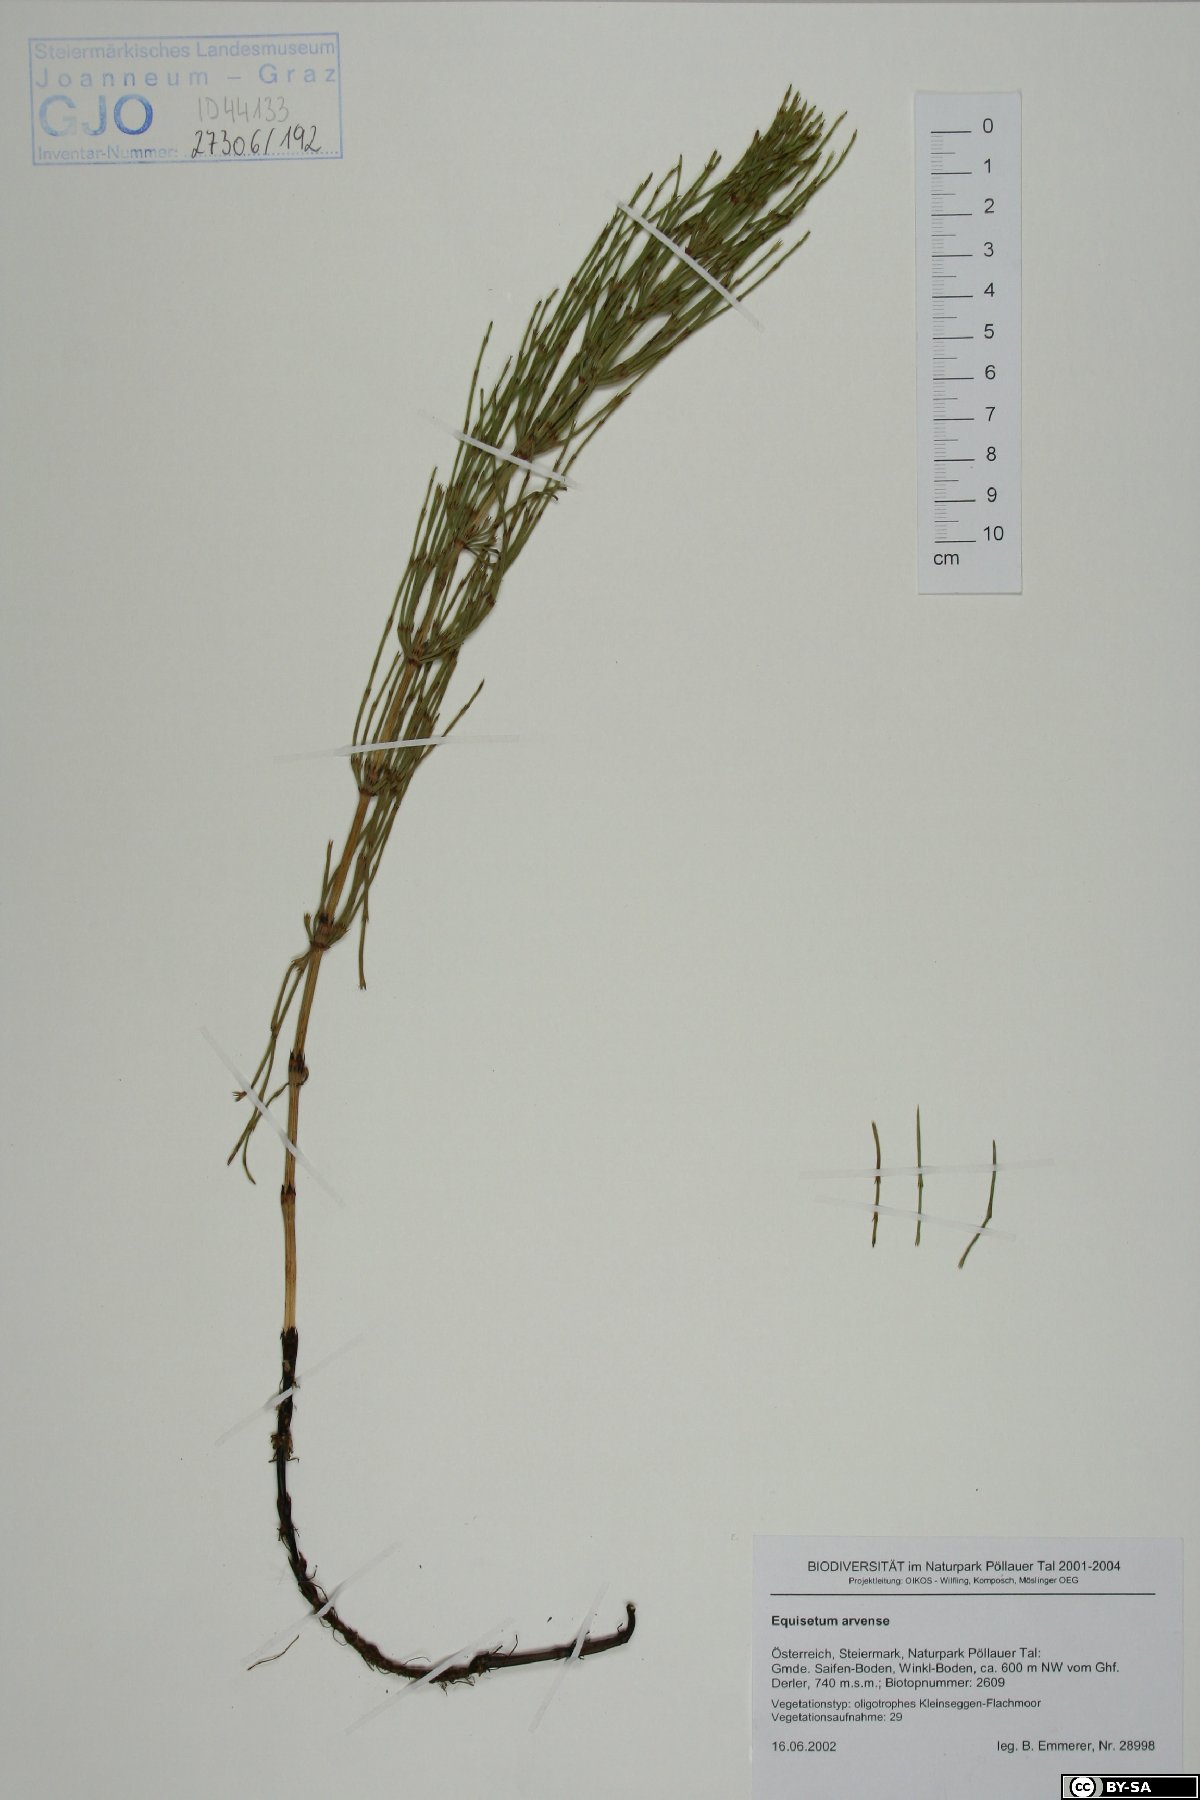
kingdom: Plantae
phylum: Tracheophyta
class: Polypodiopsida
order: Equisetales
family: Equisetaceae
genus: Equisetum
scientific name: Equisetum arvense
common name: Field horsetail
